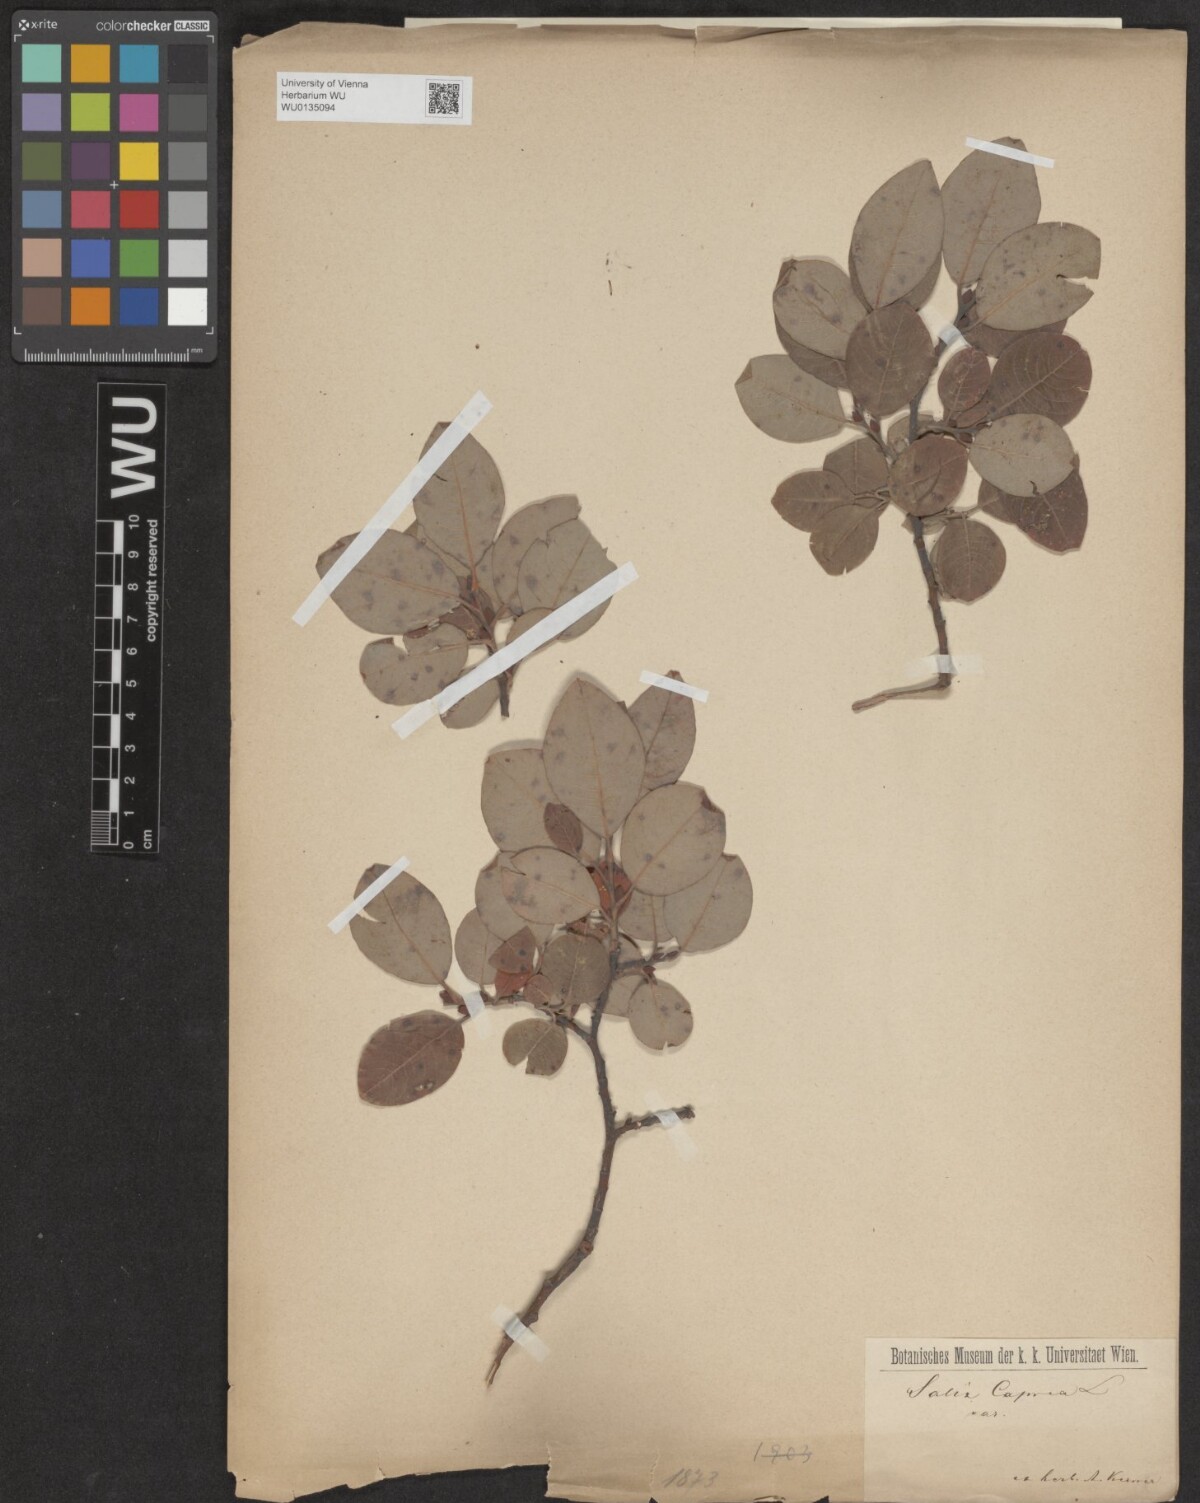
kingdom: Plantae
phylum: Tracheophyta
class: Magnoliopsida
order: Malpighiales
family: Salicaceae
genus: Salix
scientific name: Salix caprea
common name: Goat willow
